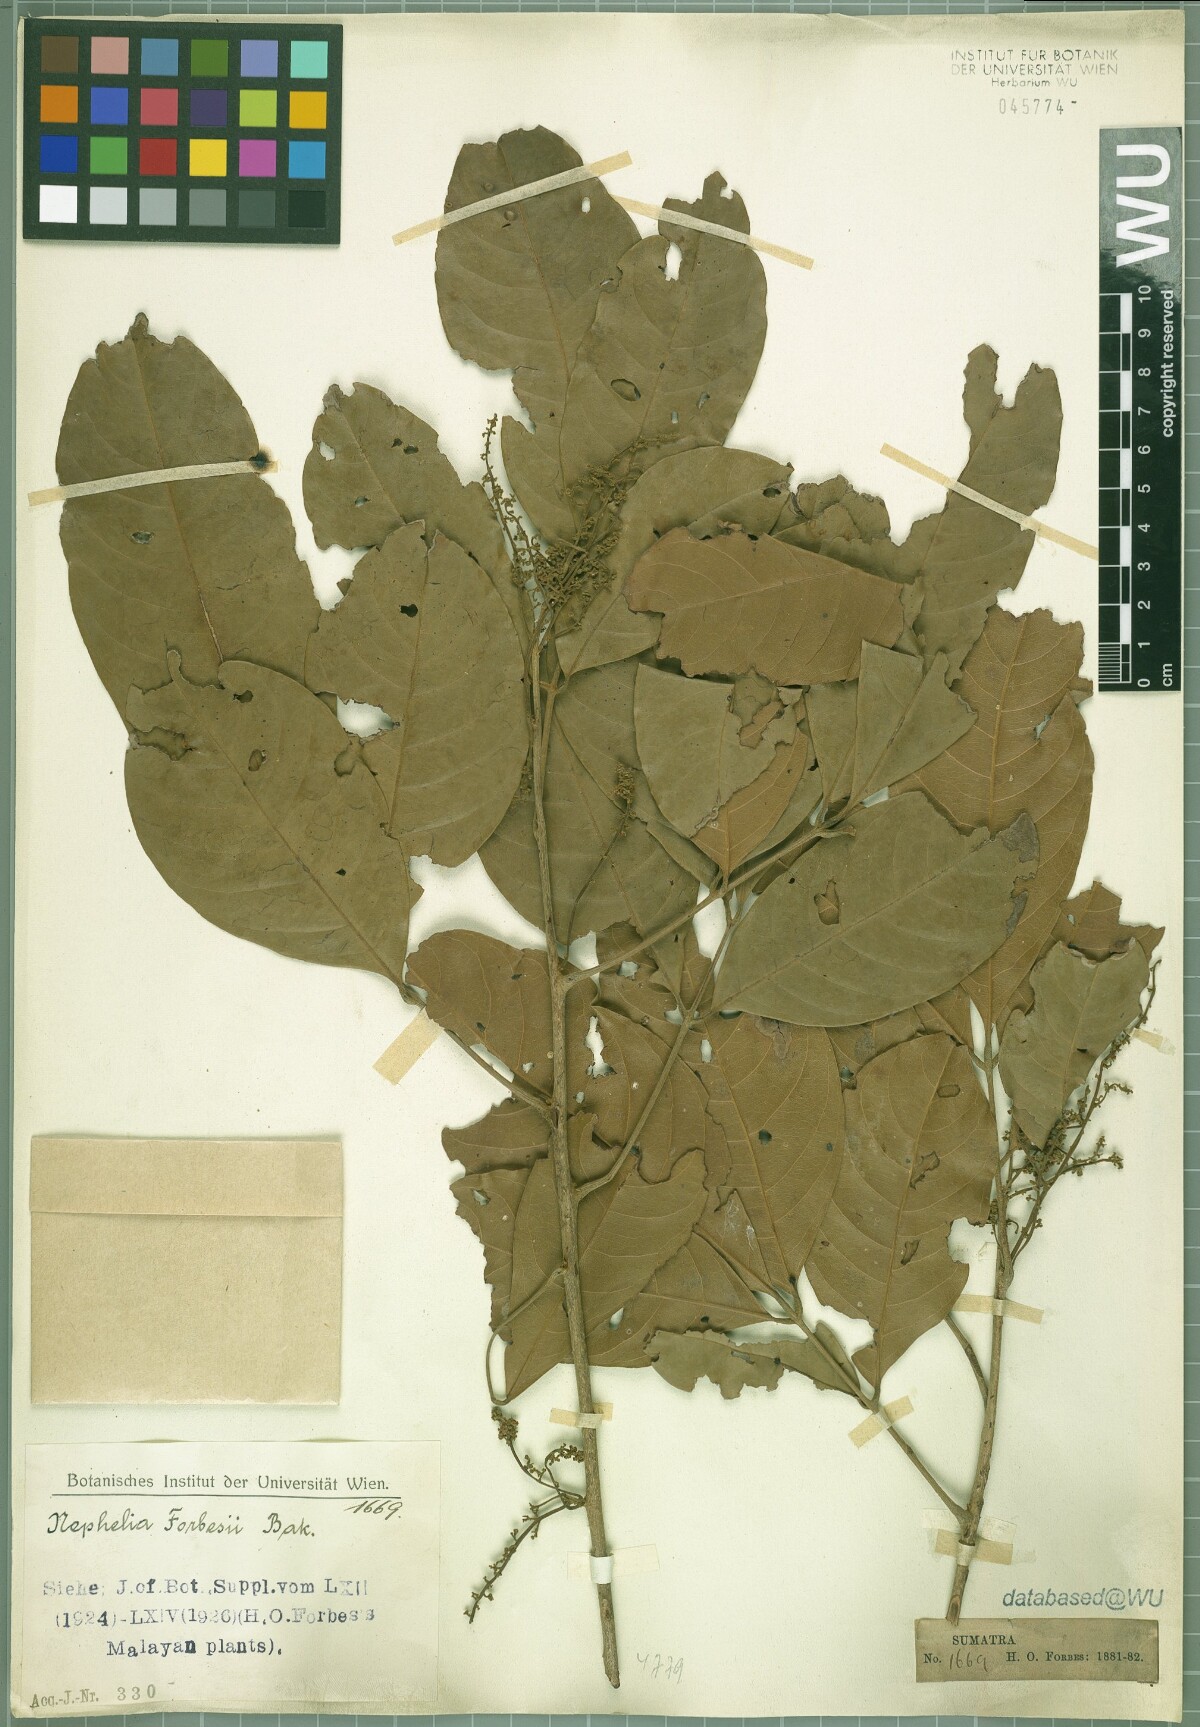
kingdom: Plantae
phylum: Tracheophyta
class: Magnoliopsida
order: Sapindales
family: Sapindaceae
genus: Paranephelium
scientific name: Paranephelium xestophyllum
